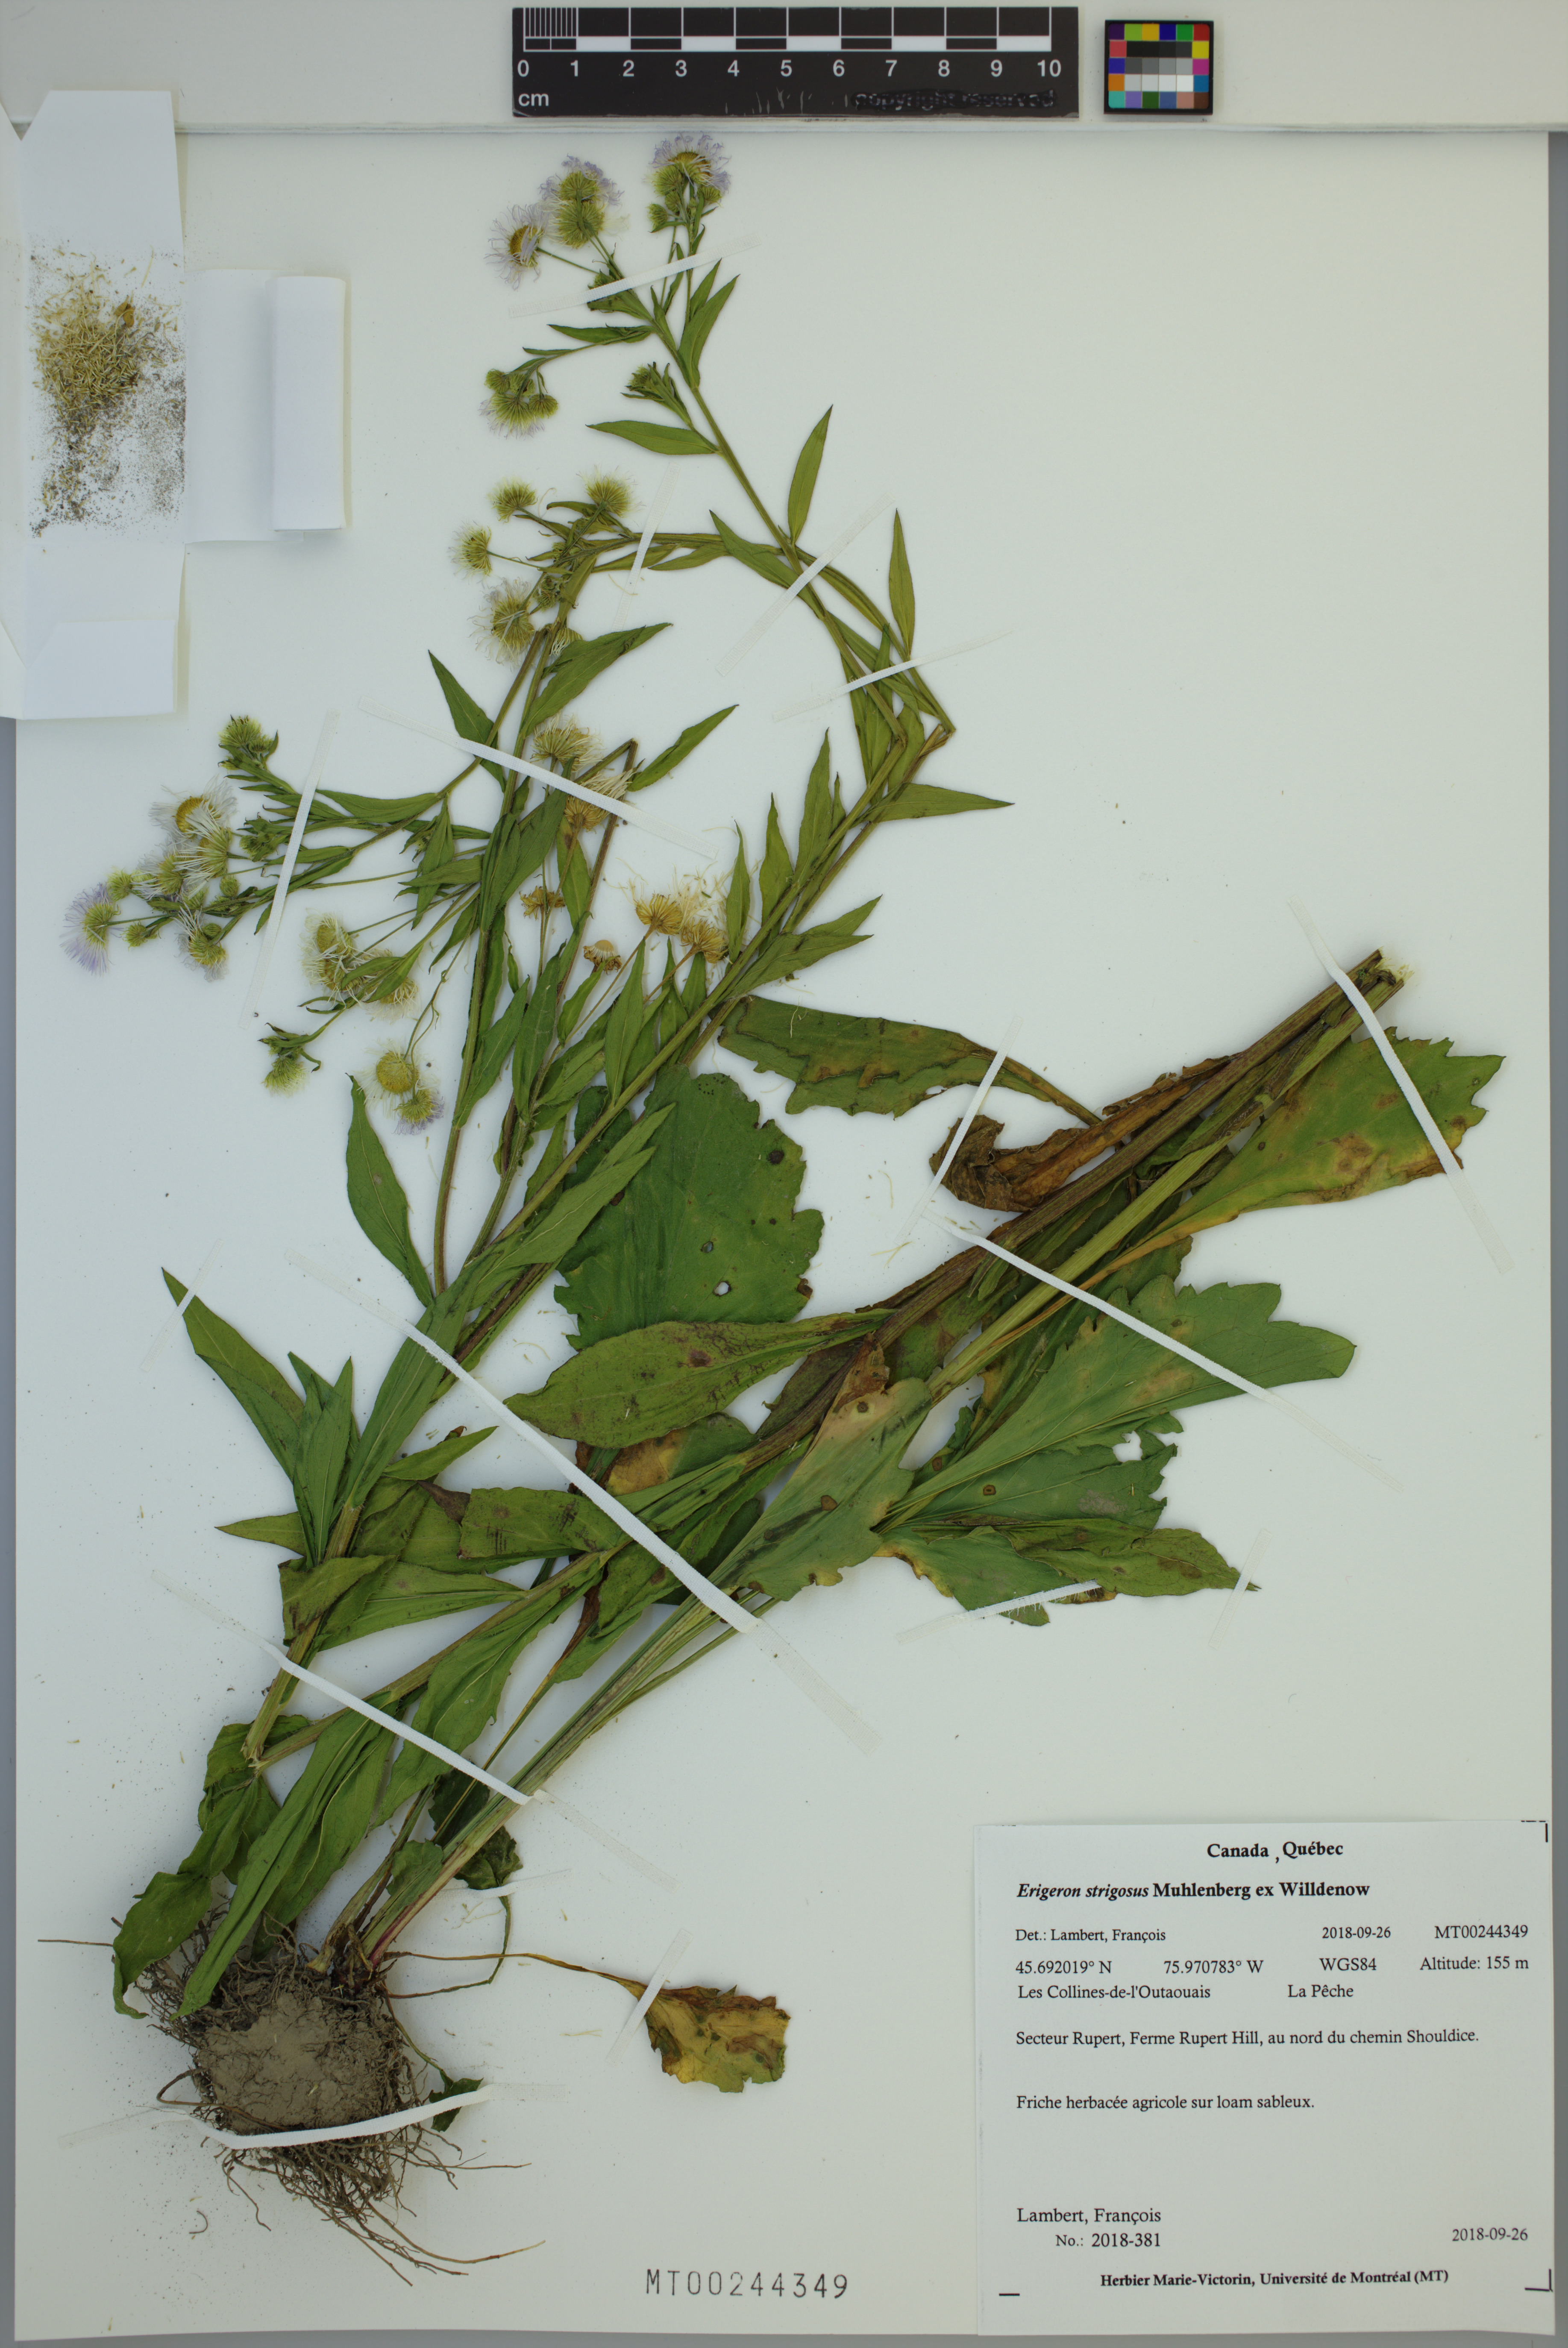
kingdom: Plantae
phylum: Tracheophyta
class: Magnoliopsida
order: Asterales
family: Asteraceae
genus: Erigeron
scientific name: Erigeron strigosus
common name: Common eastern fleabane
